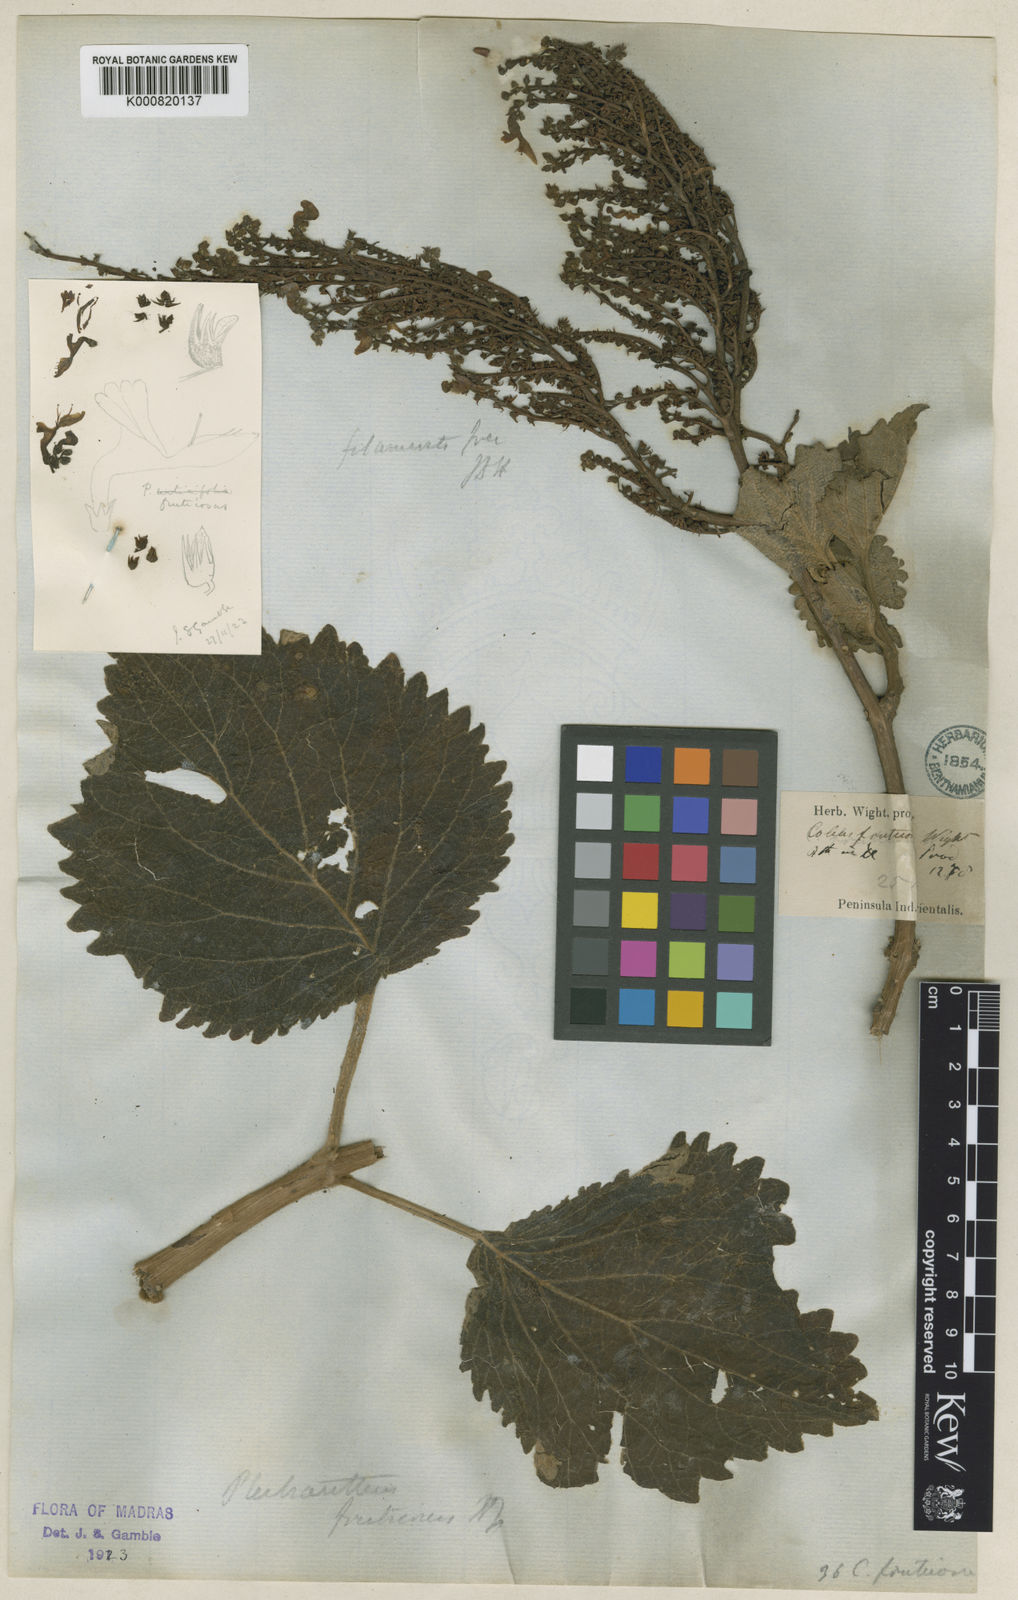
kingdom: Plantae
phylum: Tracheophyta
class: Magnoliopsida
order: Lamiales
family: Lamiaceae
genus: Coleus
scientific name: Coleus fruticosus
